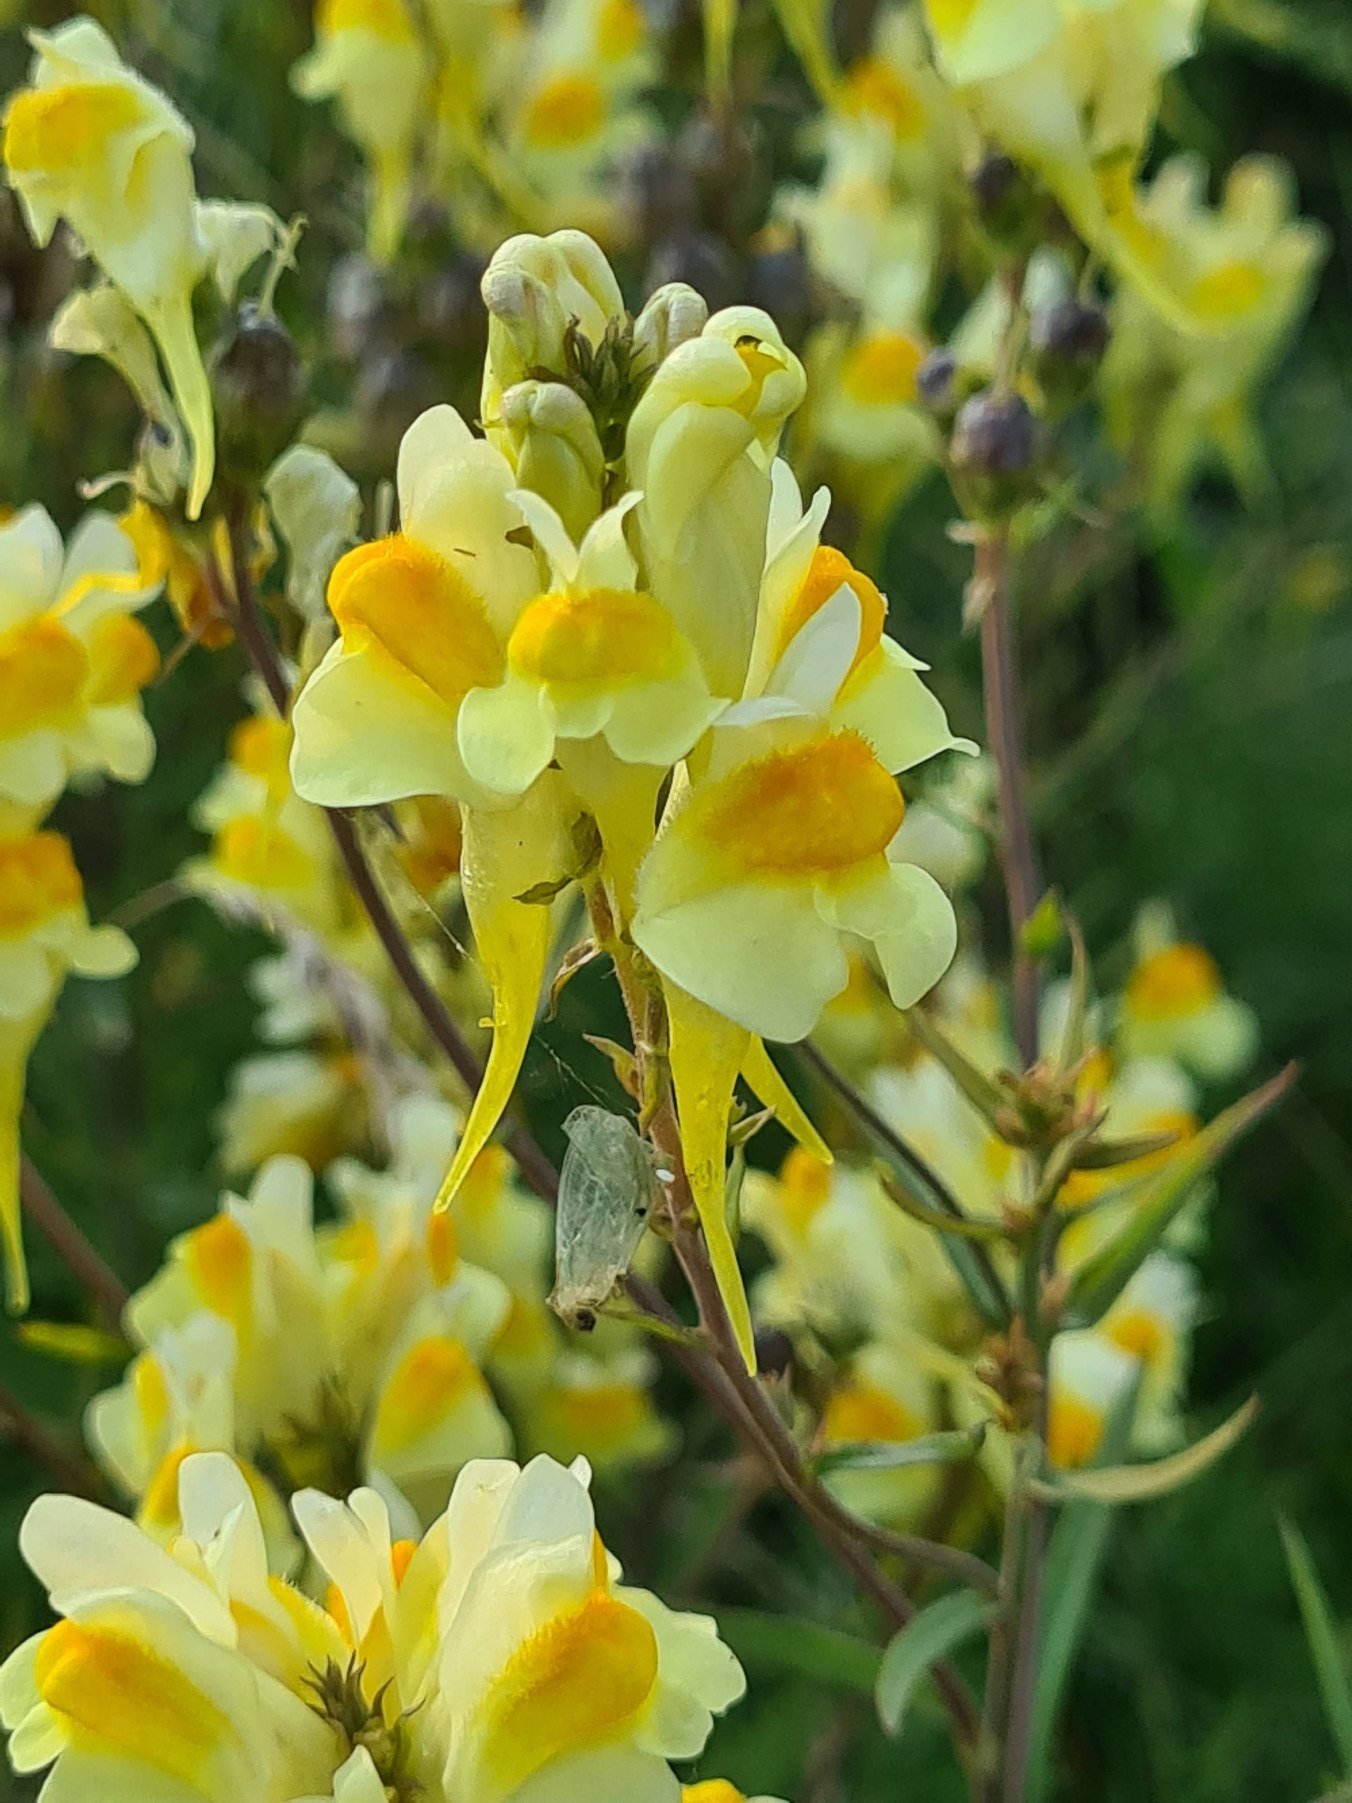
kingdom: Plantae
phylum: Tracheophyta
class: Magnoliopsida
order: Lamiales
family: Plantaginaceae
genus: Linaria
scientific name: Linaria vulgaris
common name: Almindelig torskemund
